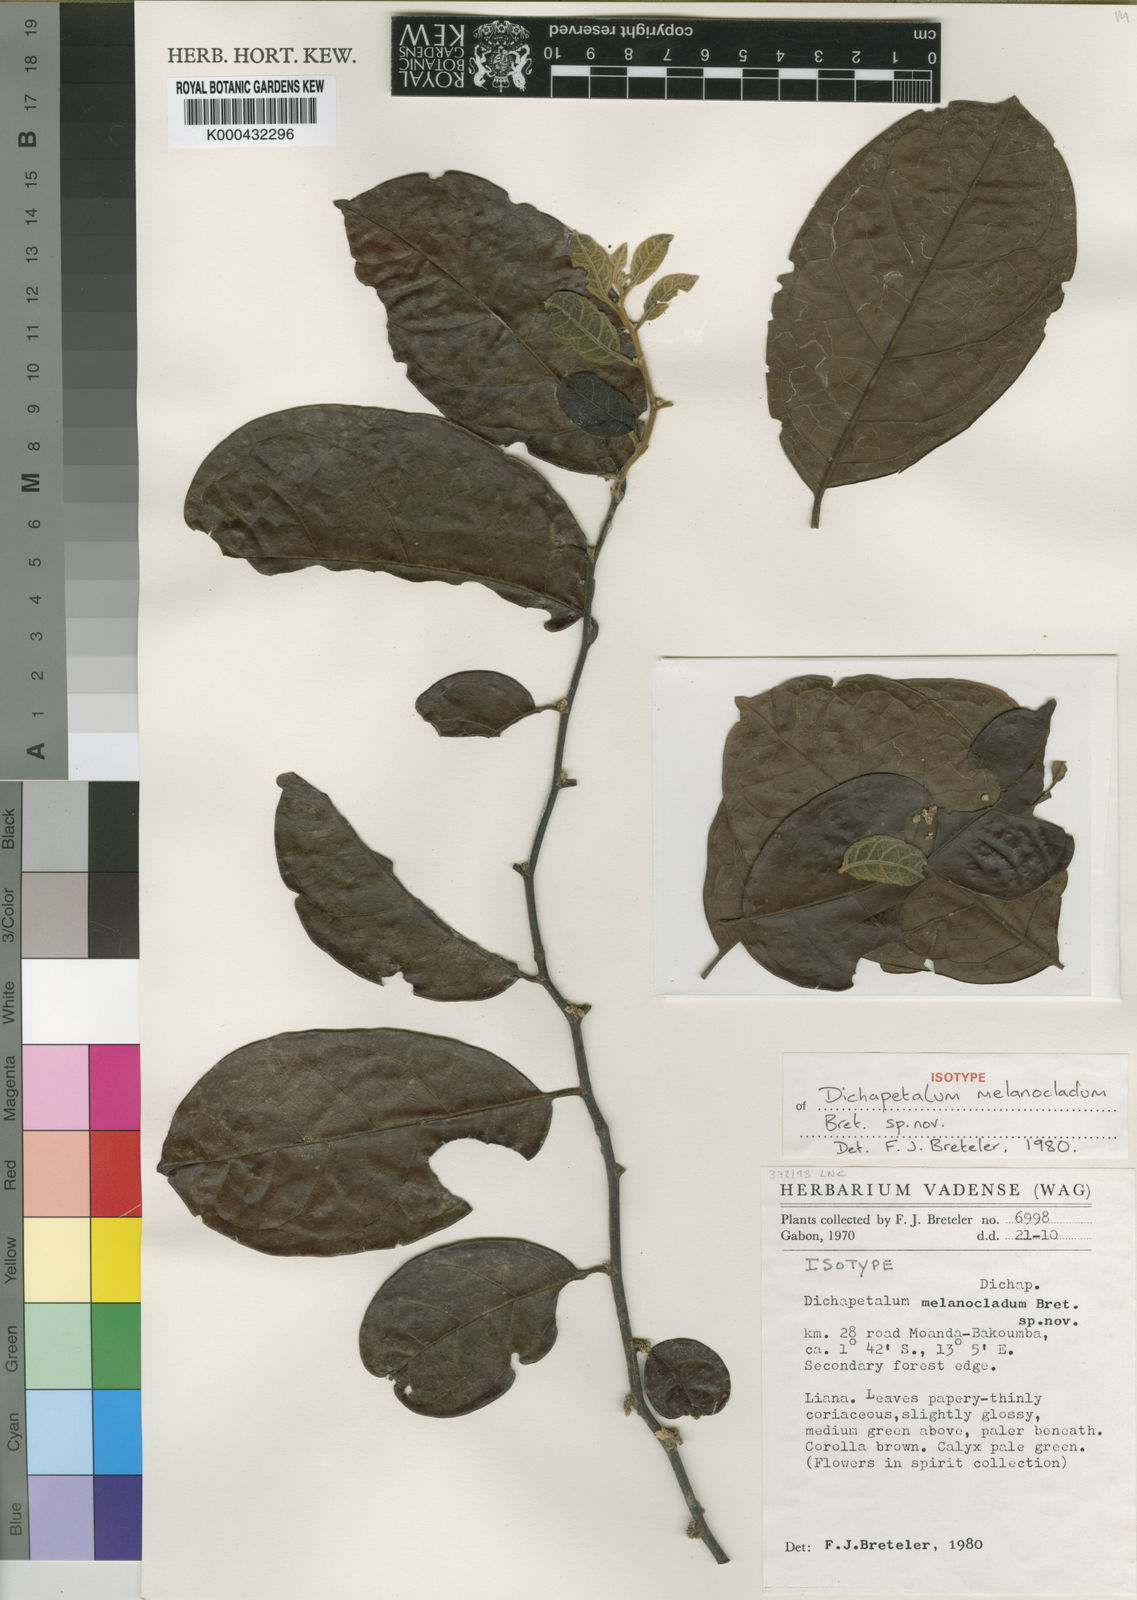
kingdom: Plantae
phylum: Tracheophyta
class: Magnoliopsida
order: Malpighiales
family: Dichapetalaceae
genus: Dichapetalum
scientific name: Dichapetalum melanocladum
